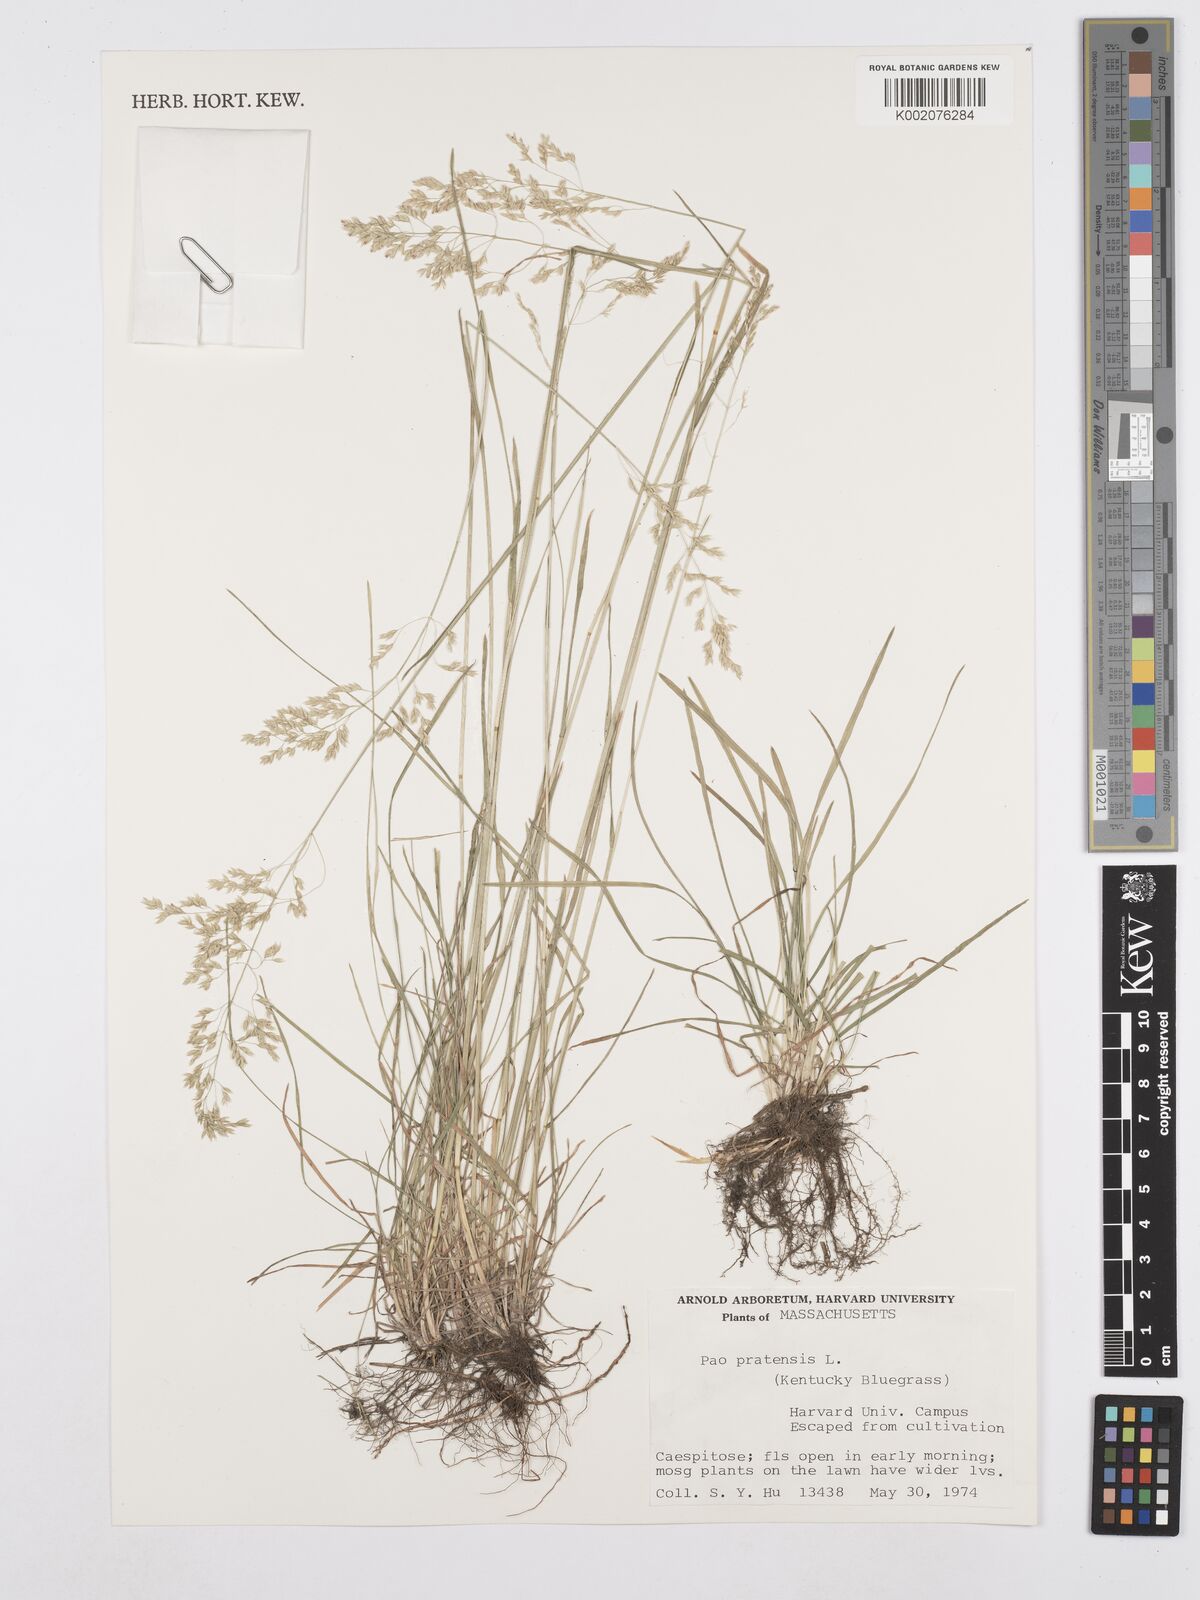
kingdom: Plantae
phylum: Tracheophyta
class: Liliopsida
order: Poales
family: Poaceae
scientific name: Poaceae
